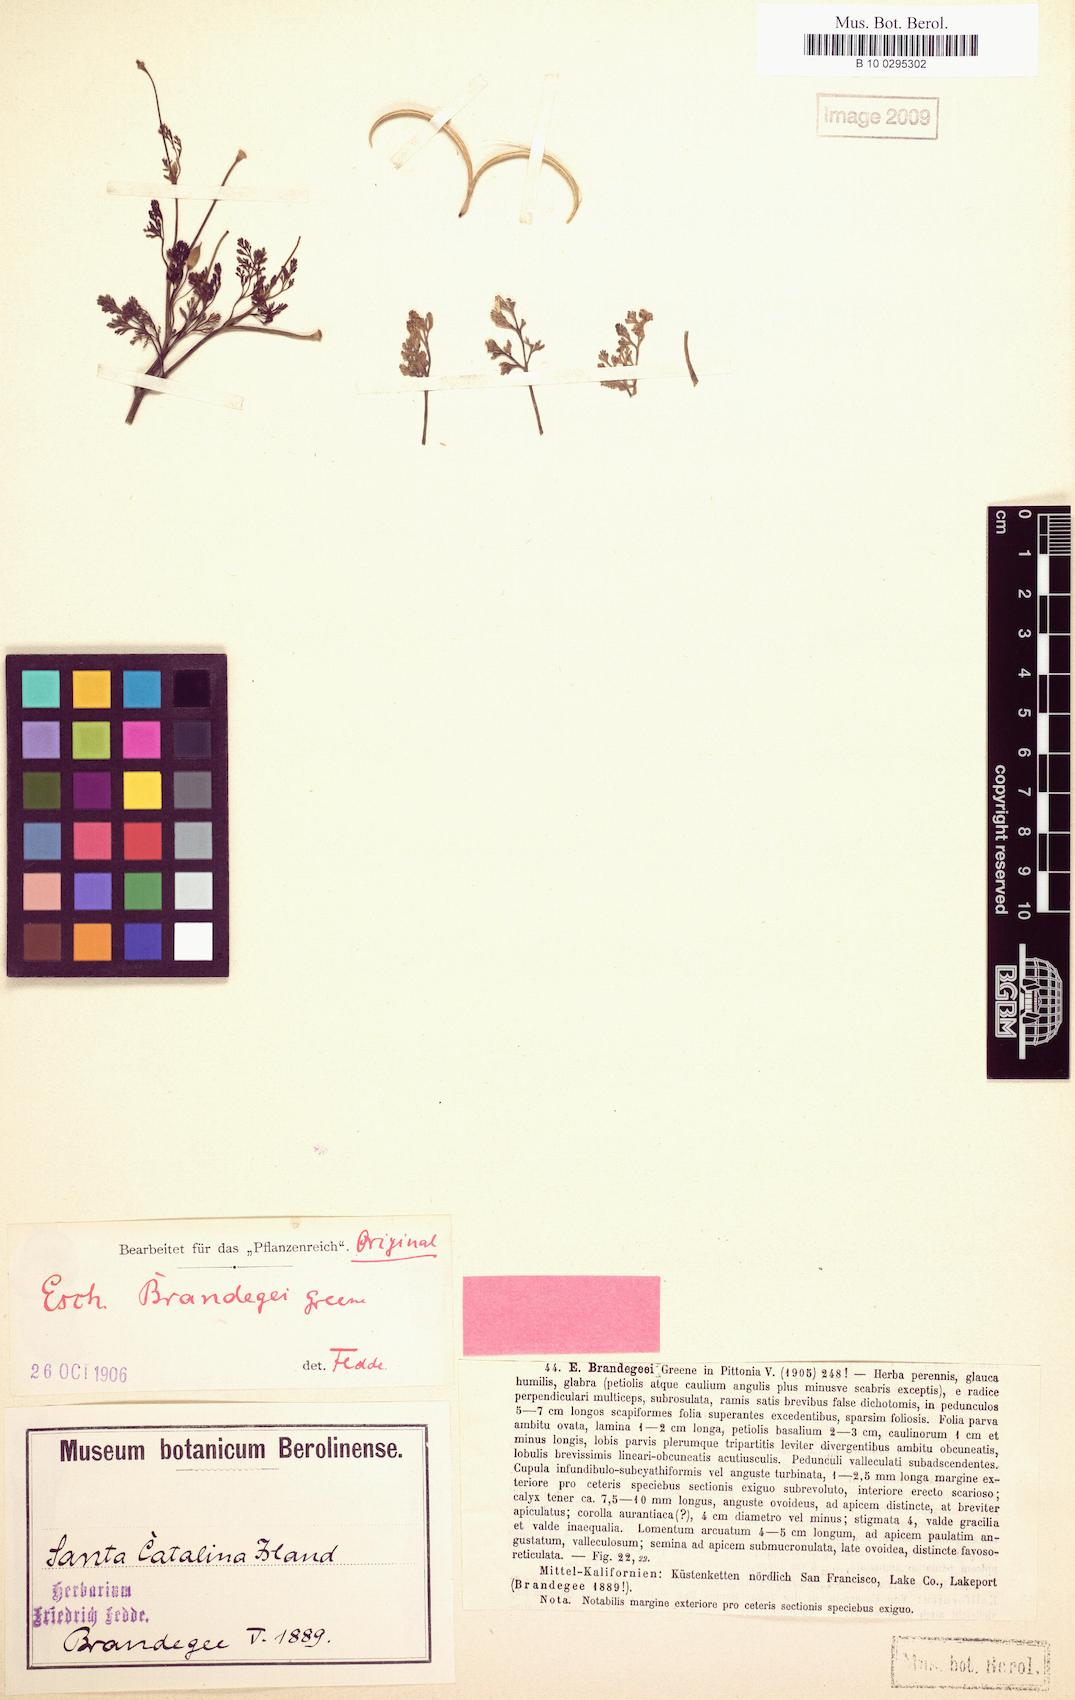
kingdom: Plantae
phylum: Tracheophyta
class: Magnoliopsida
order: Ranunculales
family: Papaveraceae
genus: Eschscholzia
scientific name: Eschscholzia californica
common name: California poppy
